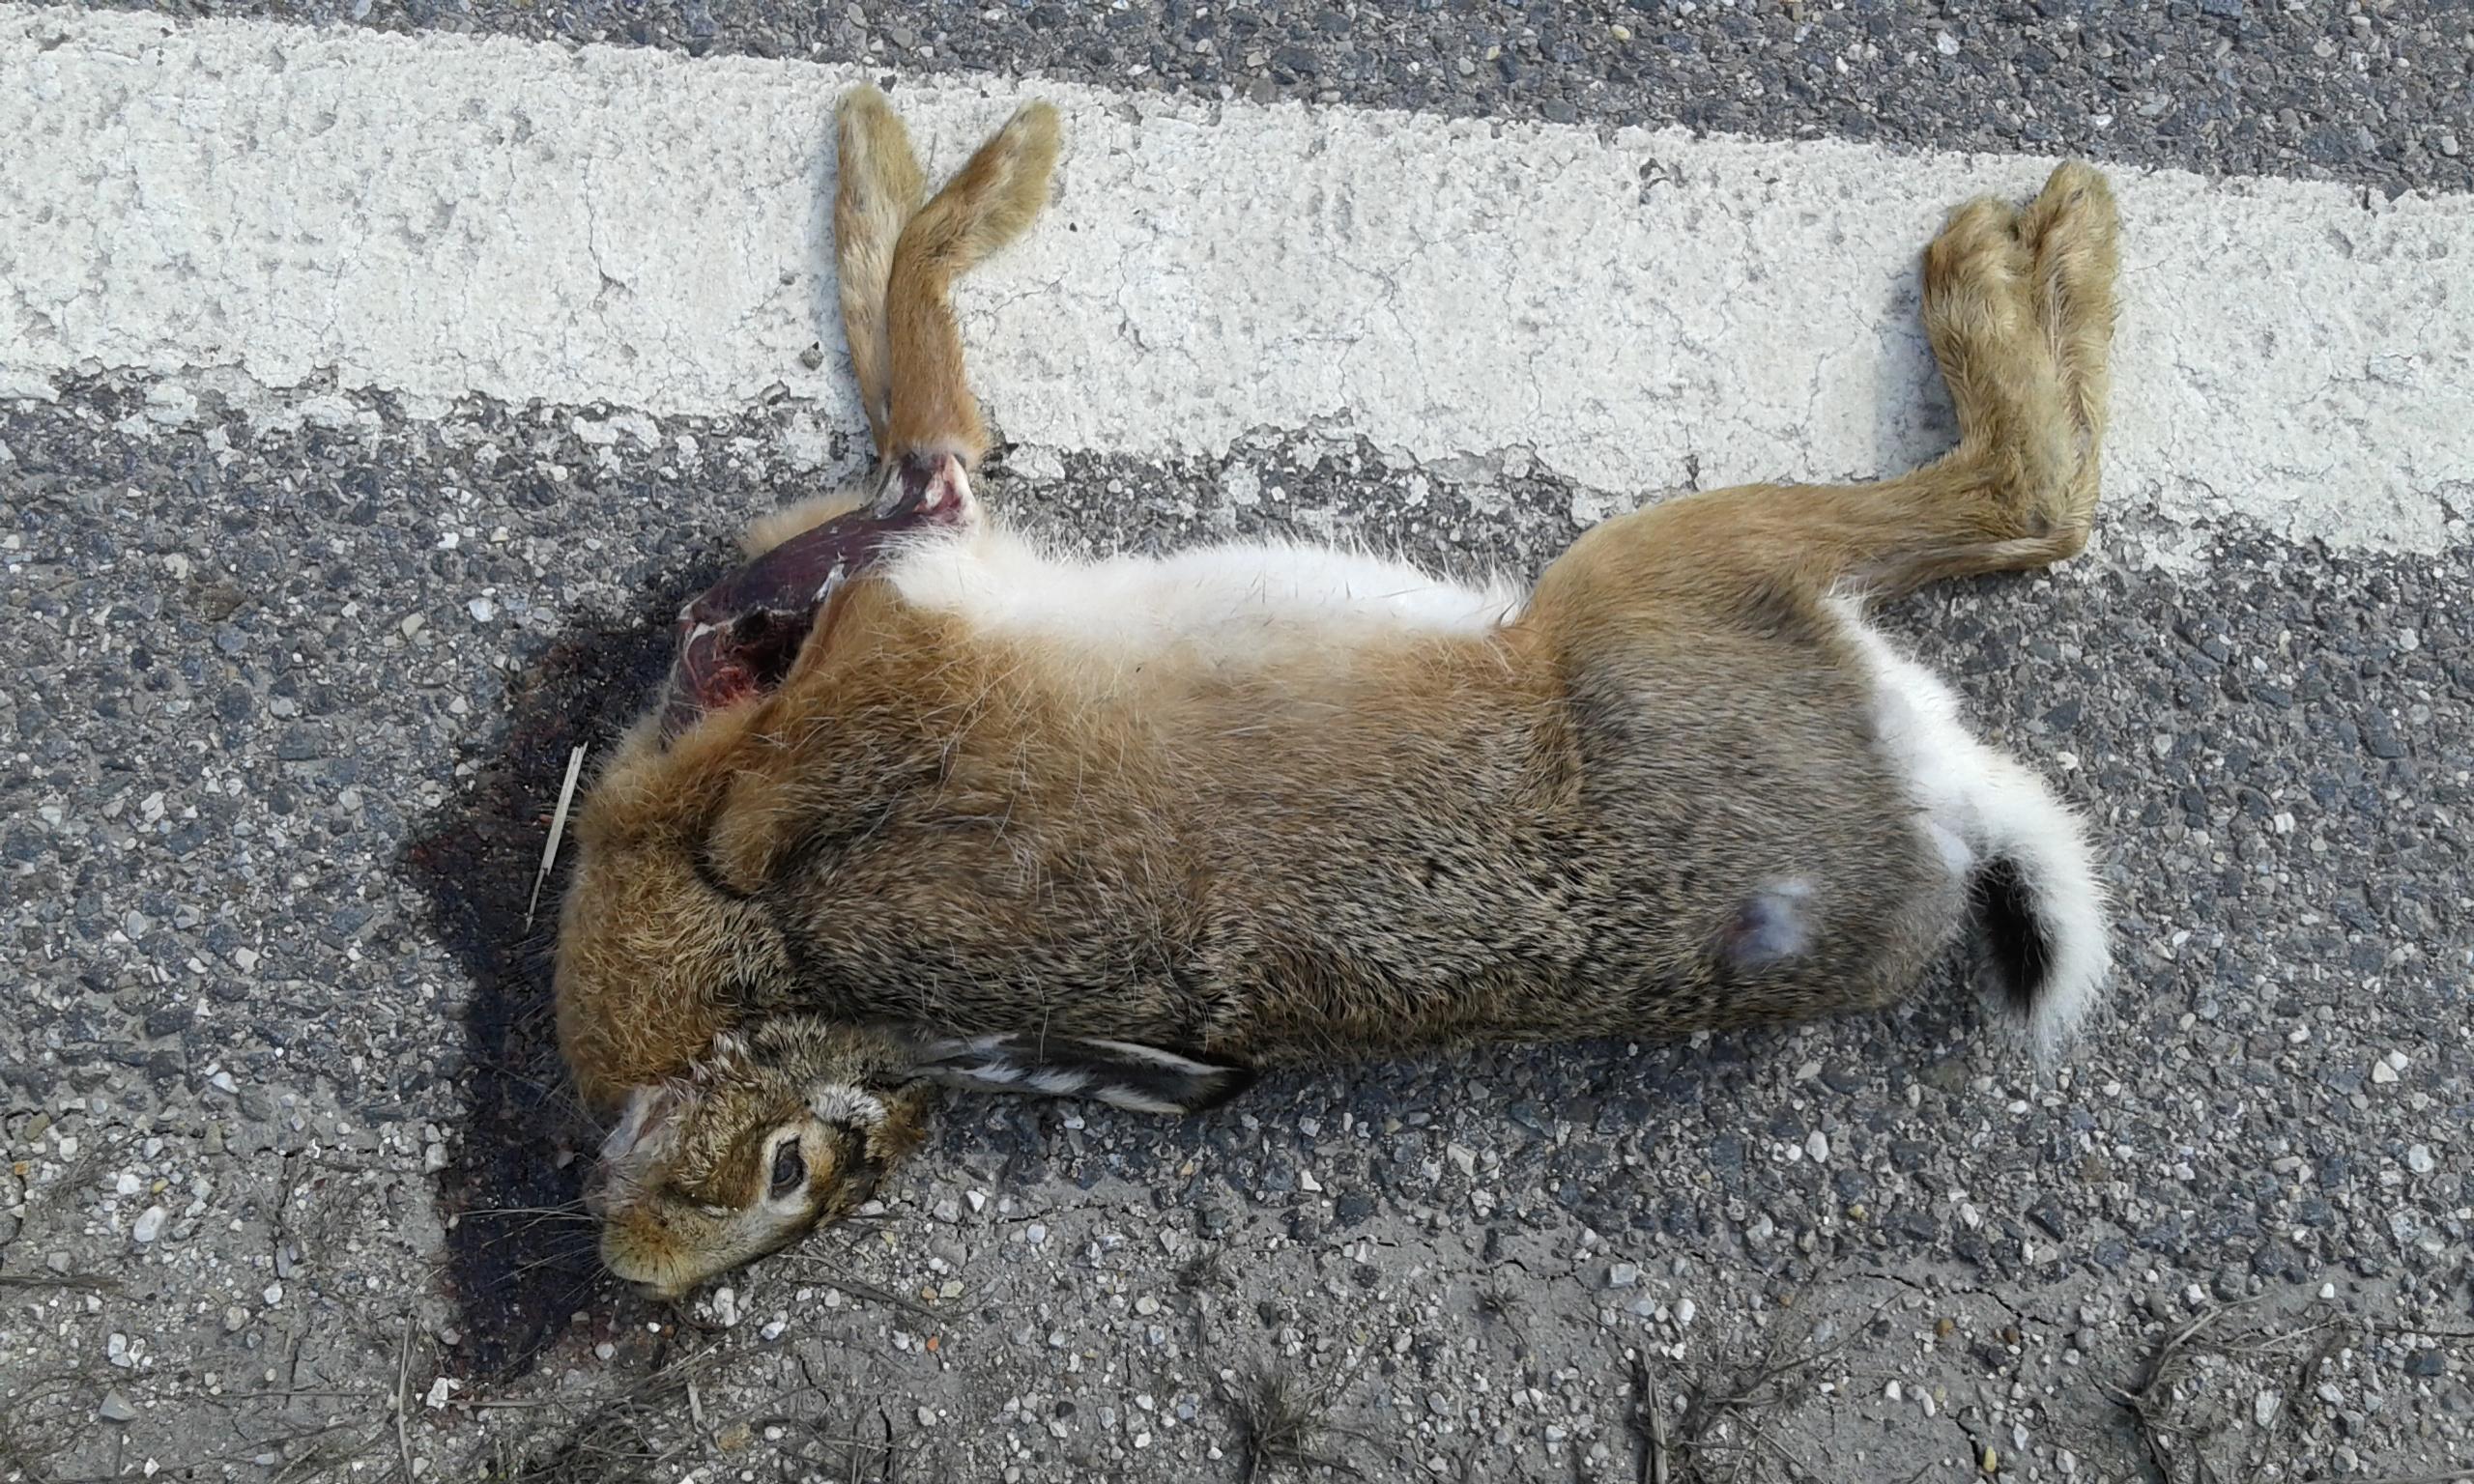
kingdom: Animalia
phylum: Chordata
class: Mammalia
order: Lagomorpha
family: Leporidae
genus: Lepus
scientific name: Lepus europaeus
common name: European hare
